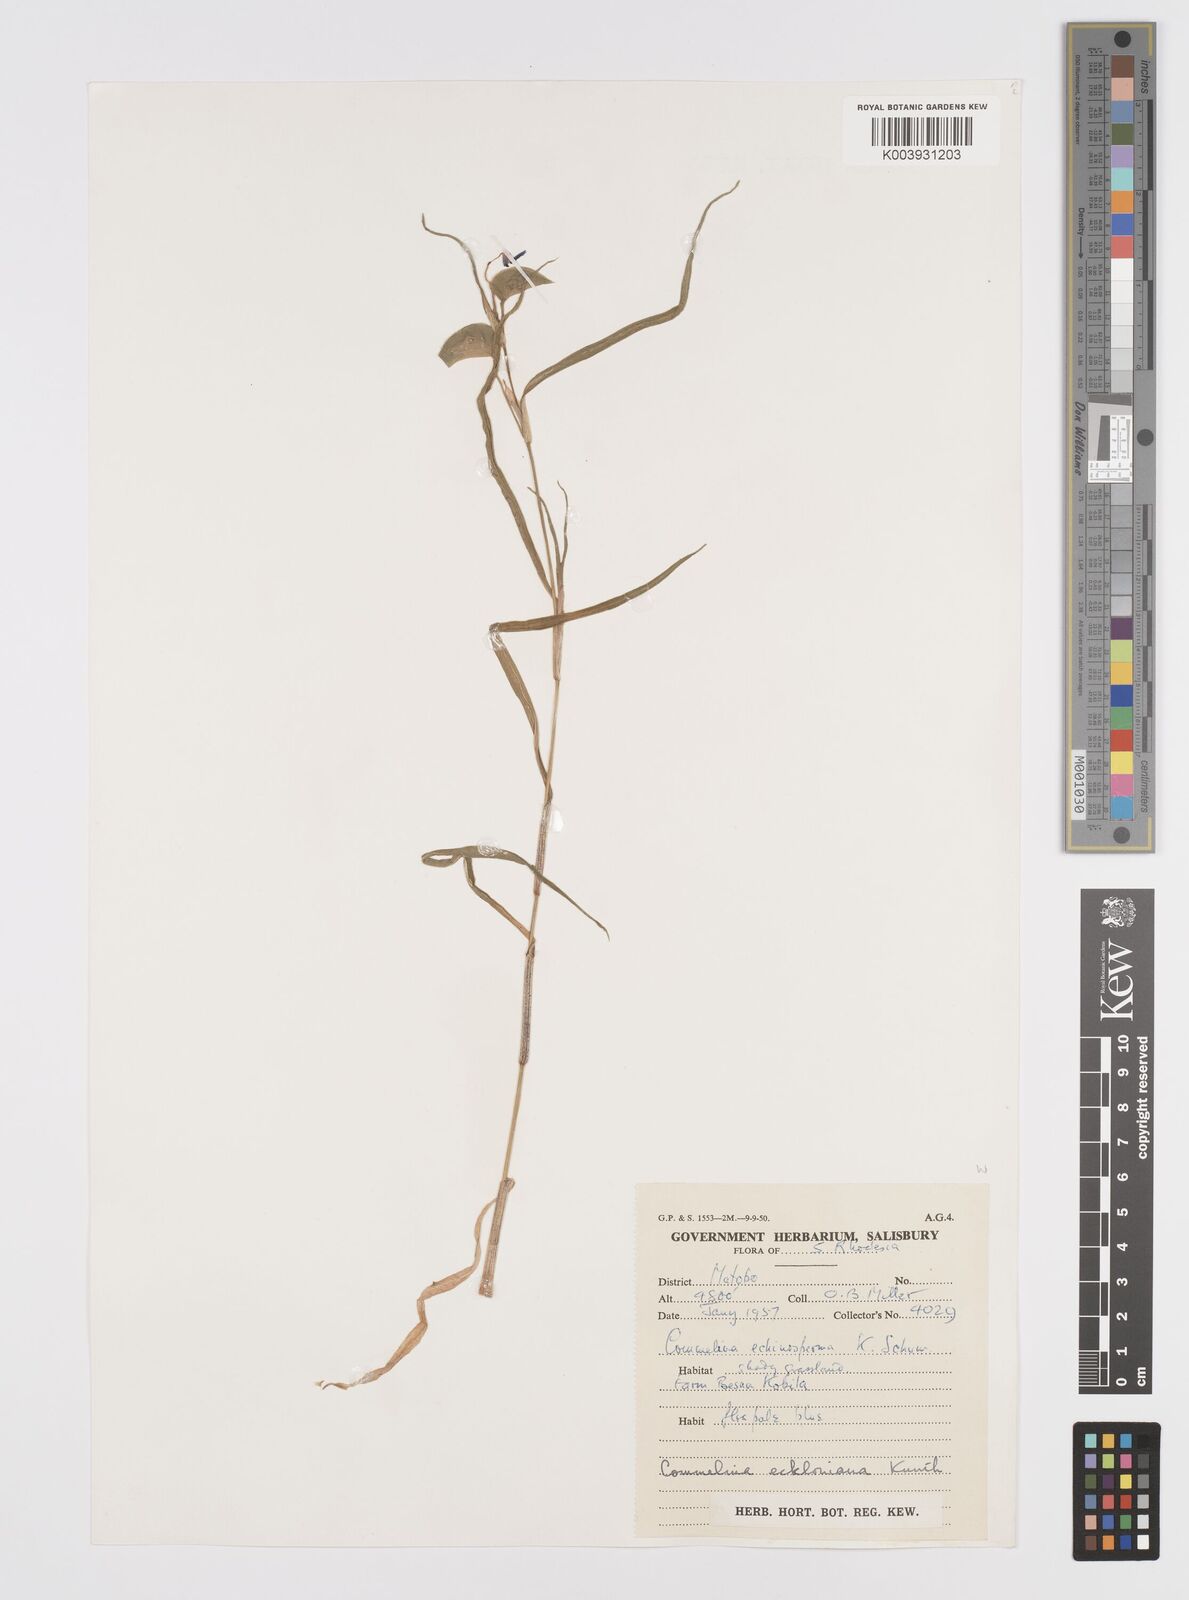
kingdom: Plantae
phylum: Tracheophyta
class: Liliopsida
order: Commelinales
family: Commelinaceae
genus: Commelina
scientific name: Commelina eckloniana
